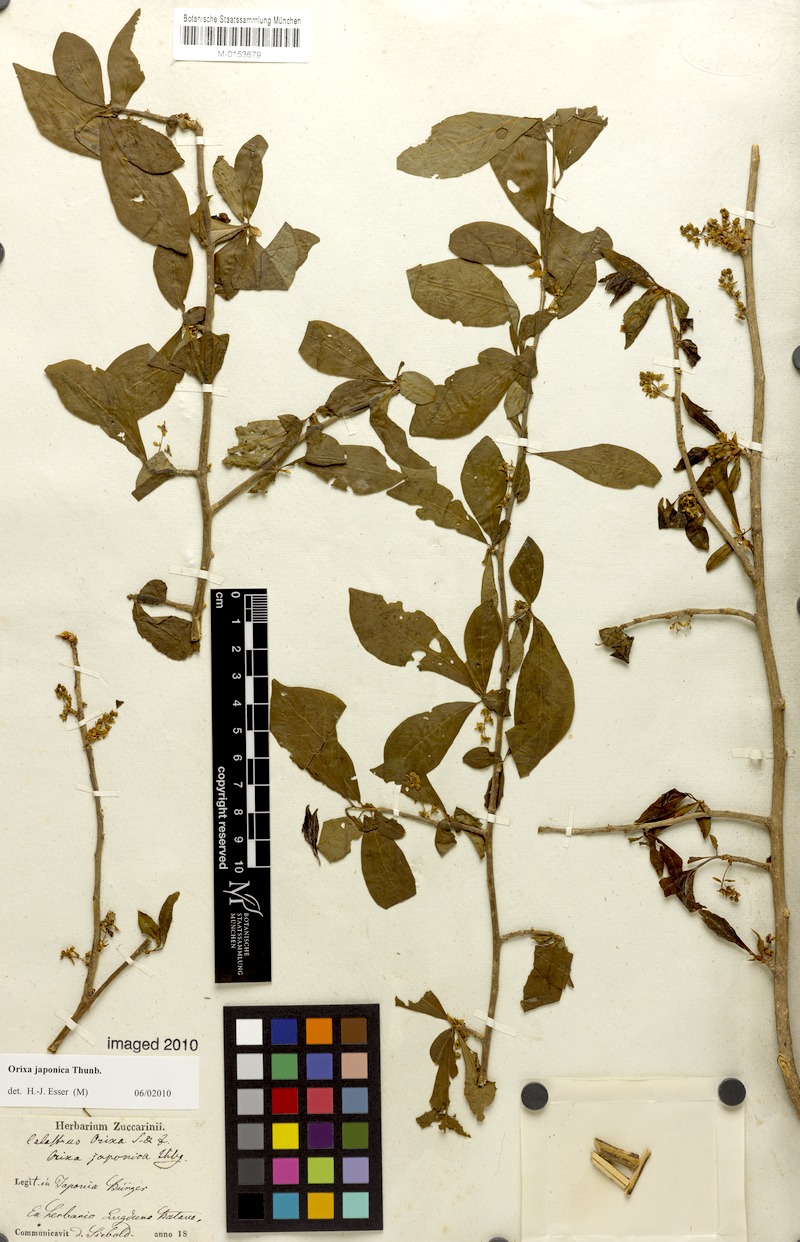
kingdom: Plantae
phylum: Tracheophyta
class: Magnoliopsida
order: Sapindales
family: Rutaceae
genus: Orixa
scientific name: Orixa japonica
